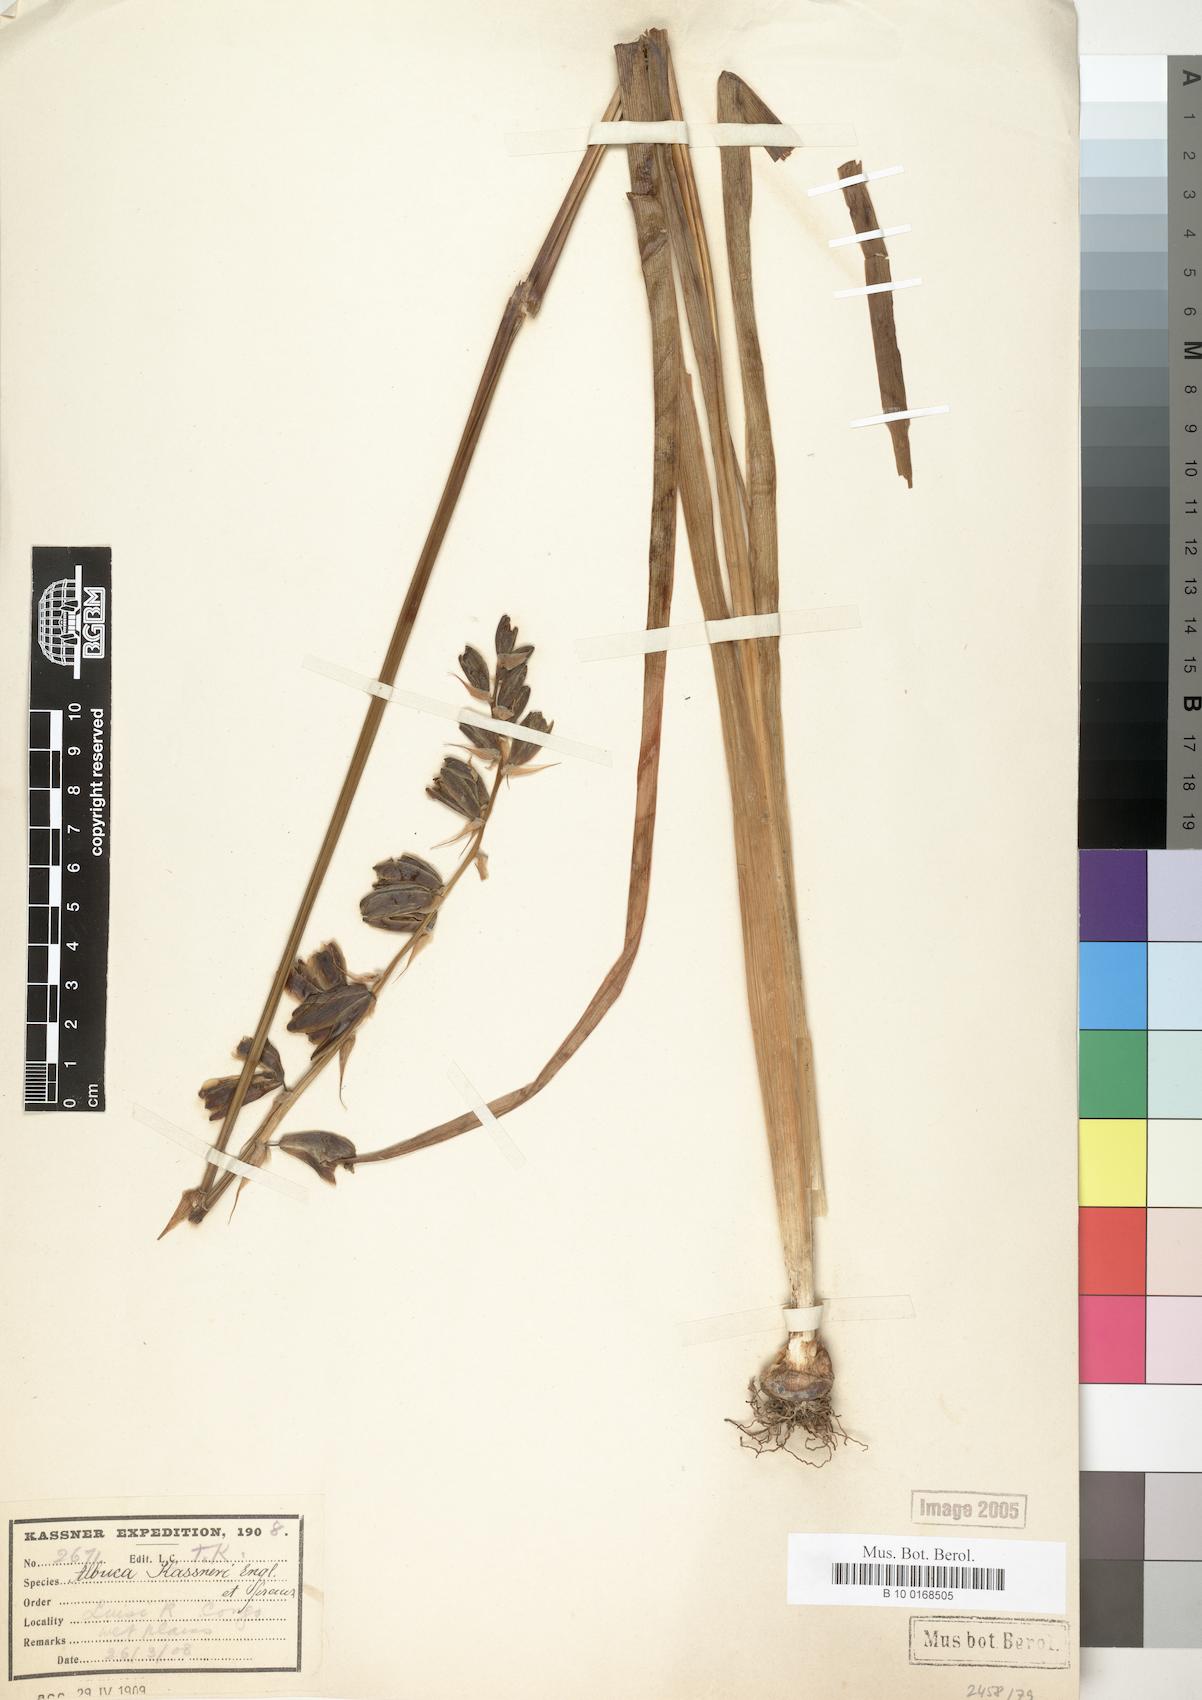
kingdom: Plantae
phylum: Tracheophyta
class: Liliopsida
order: Asparagales
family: Asparagaceae
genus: Albuca
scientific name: Albuca kassneri
